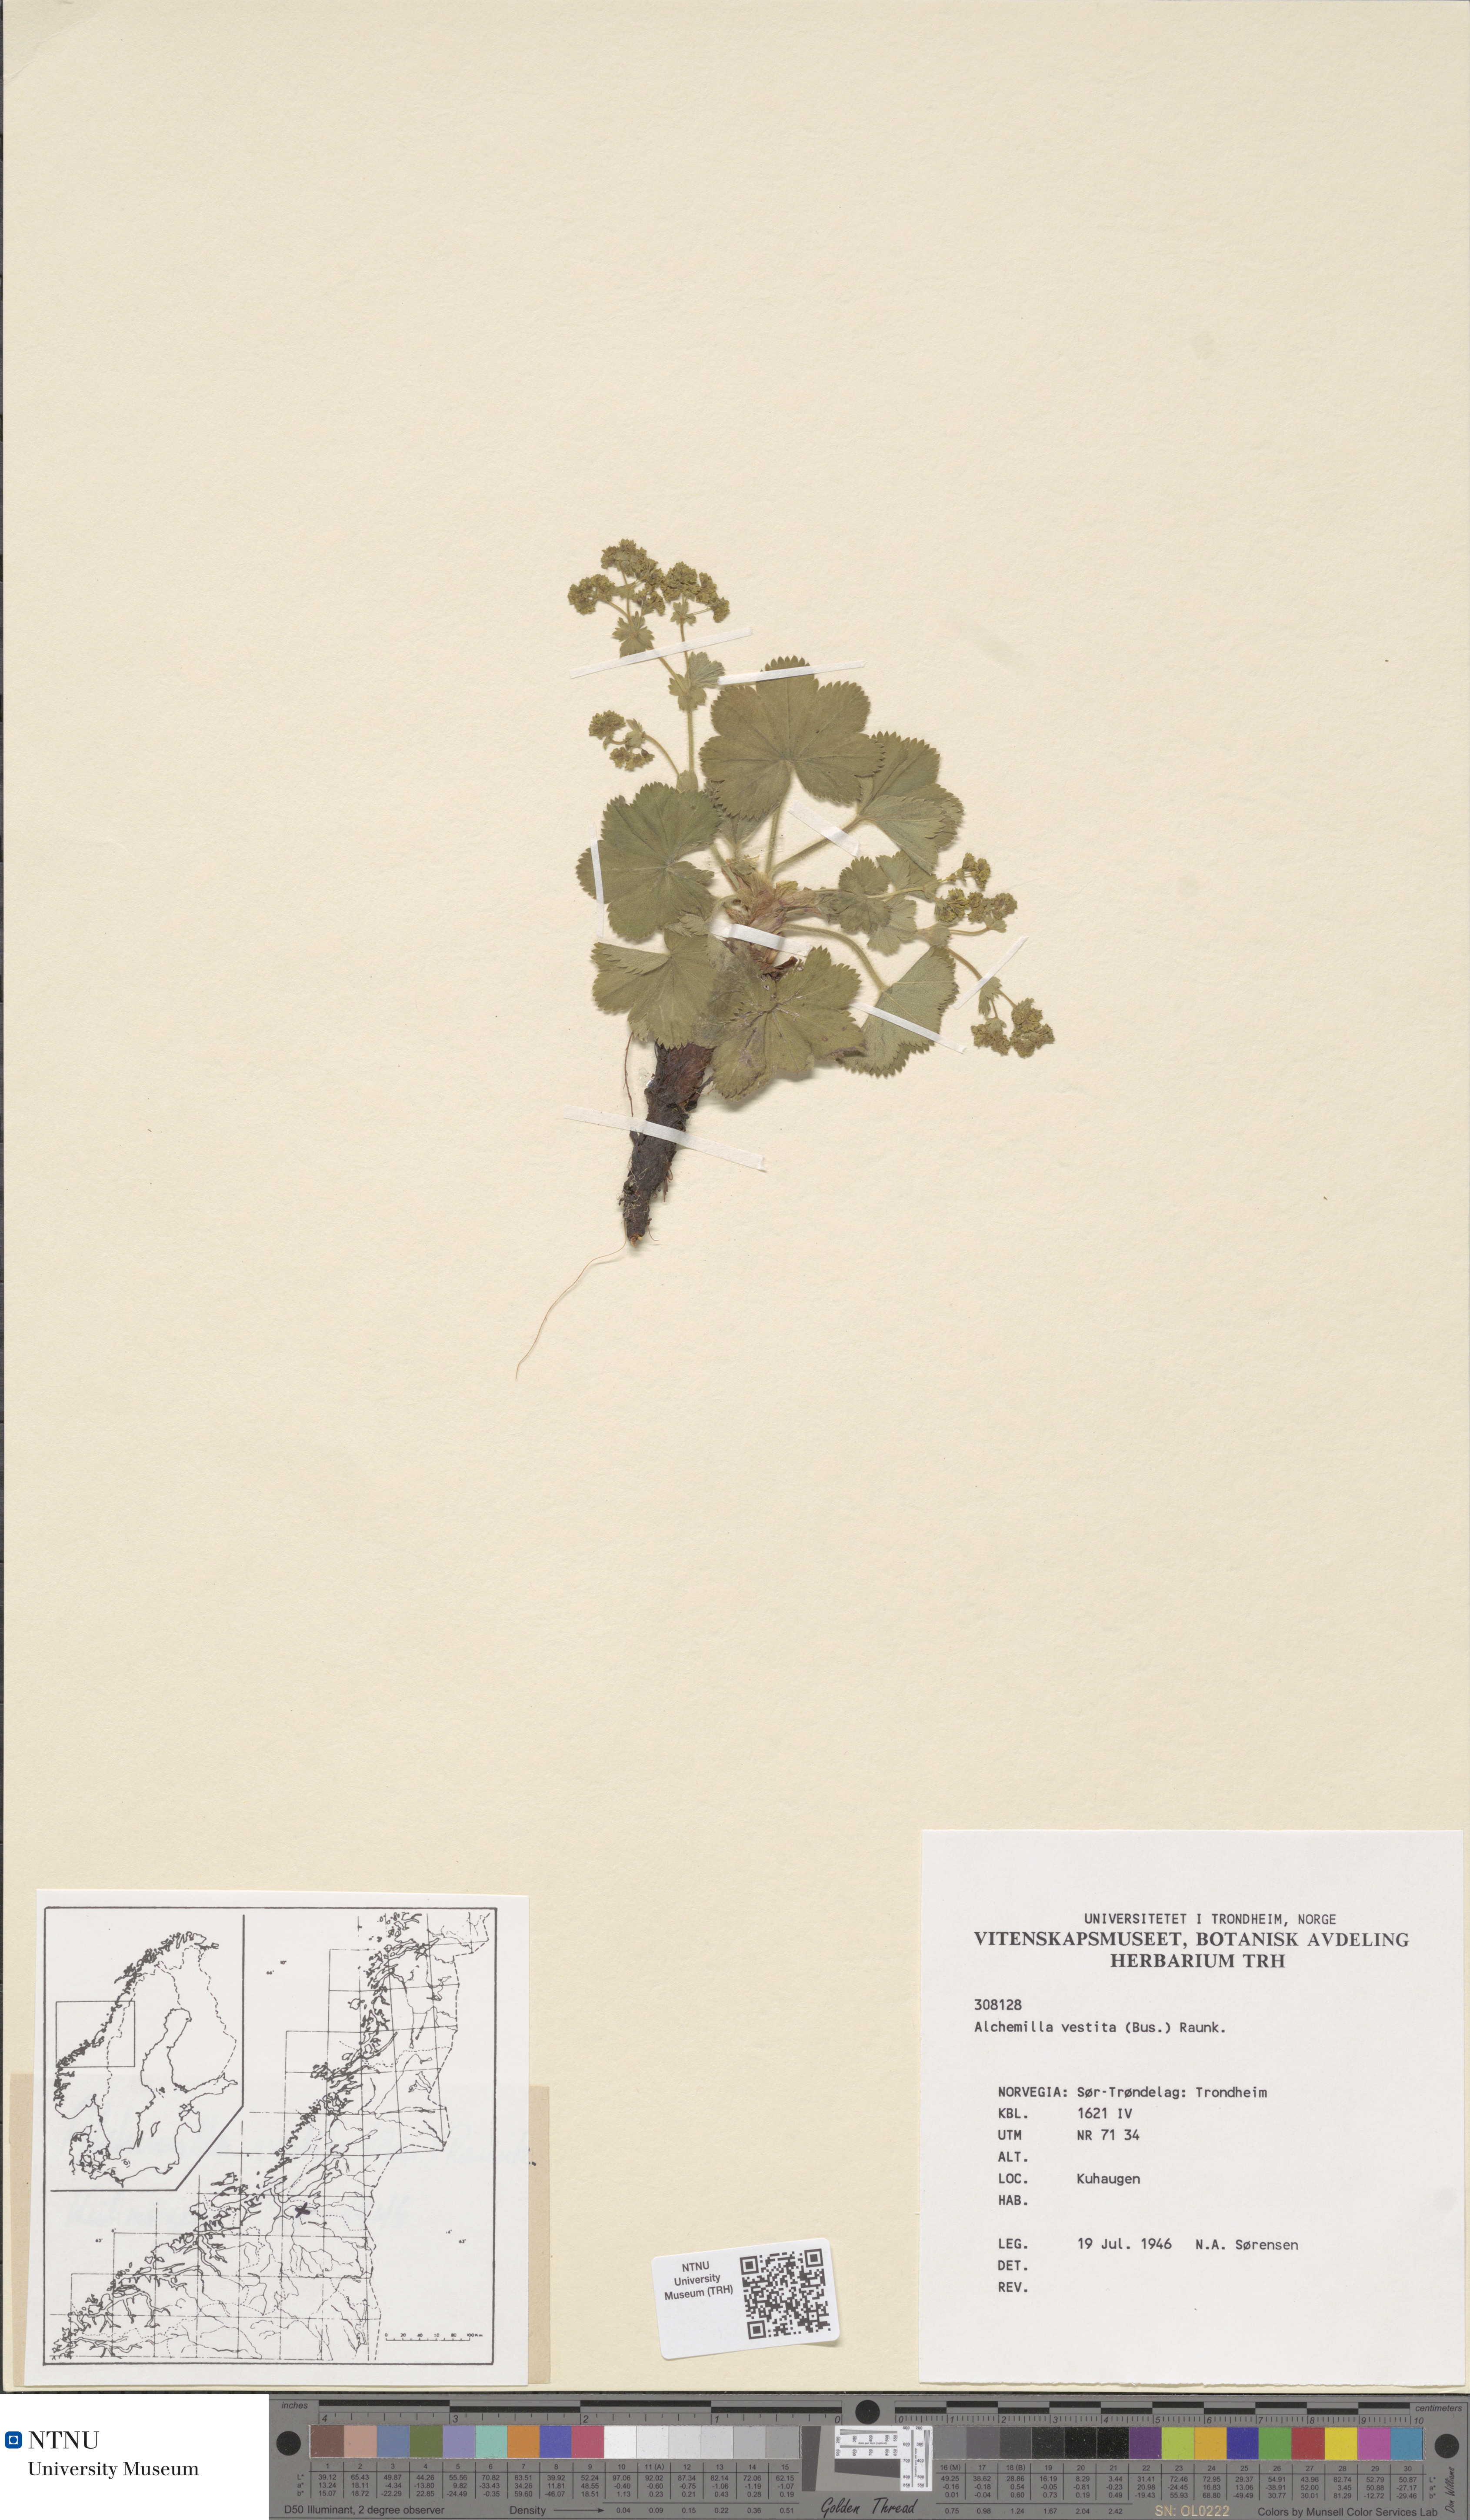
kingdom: Plantae
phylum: Tracheophyta
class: Magnoliopsida
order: Rosales
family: Rosaceae
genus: Alchemilla
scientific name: Alchemilla filicaulis
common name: Hairy lady's-mantle
